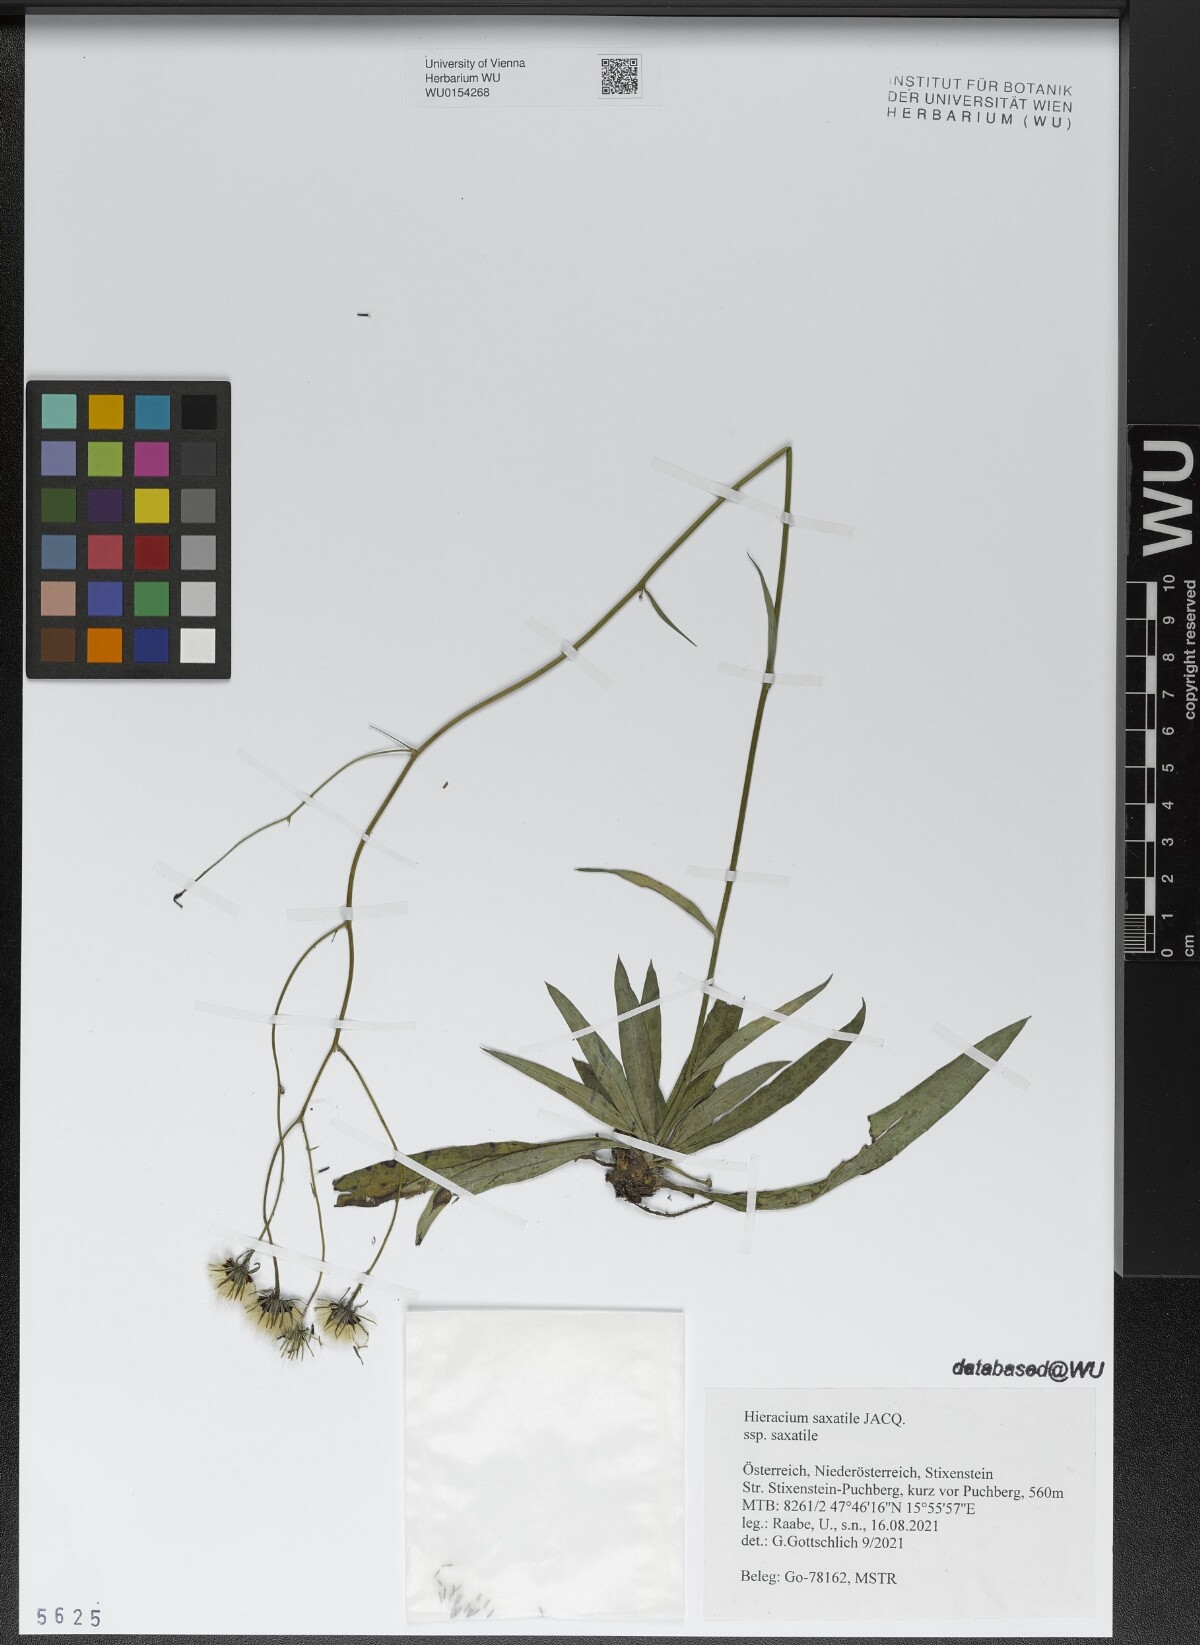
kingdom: Plantae
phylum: Tracheophyta
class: Magnoliopsida
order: Asterales
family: Asteraceae
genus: Hieracium
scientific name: Hieracium saxatile
